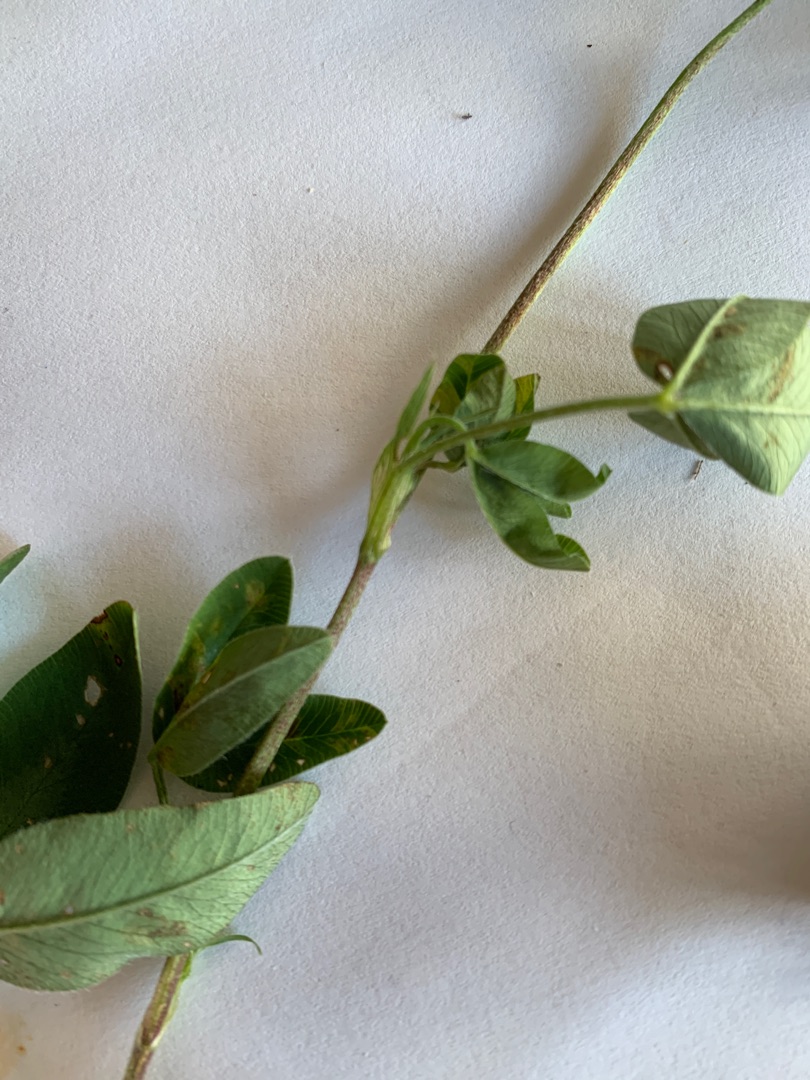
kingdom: Plantae
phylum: Tracheophyta
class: Magnoliopsida
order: Fabales
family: Fabaceae
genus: Trifolium
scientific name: Trifolium medium
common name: Bugtet kløver
